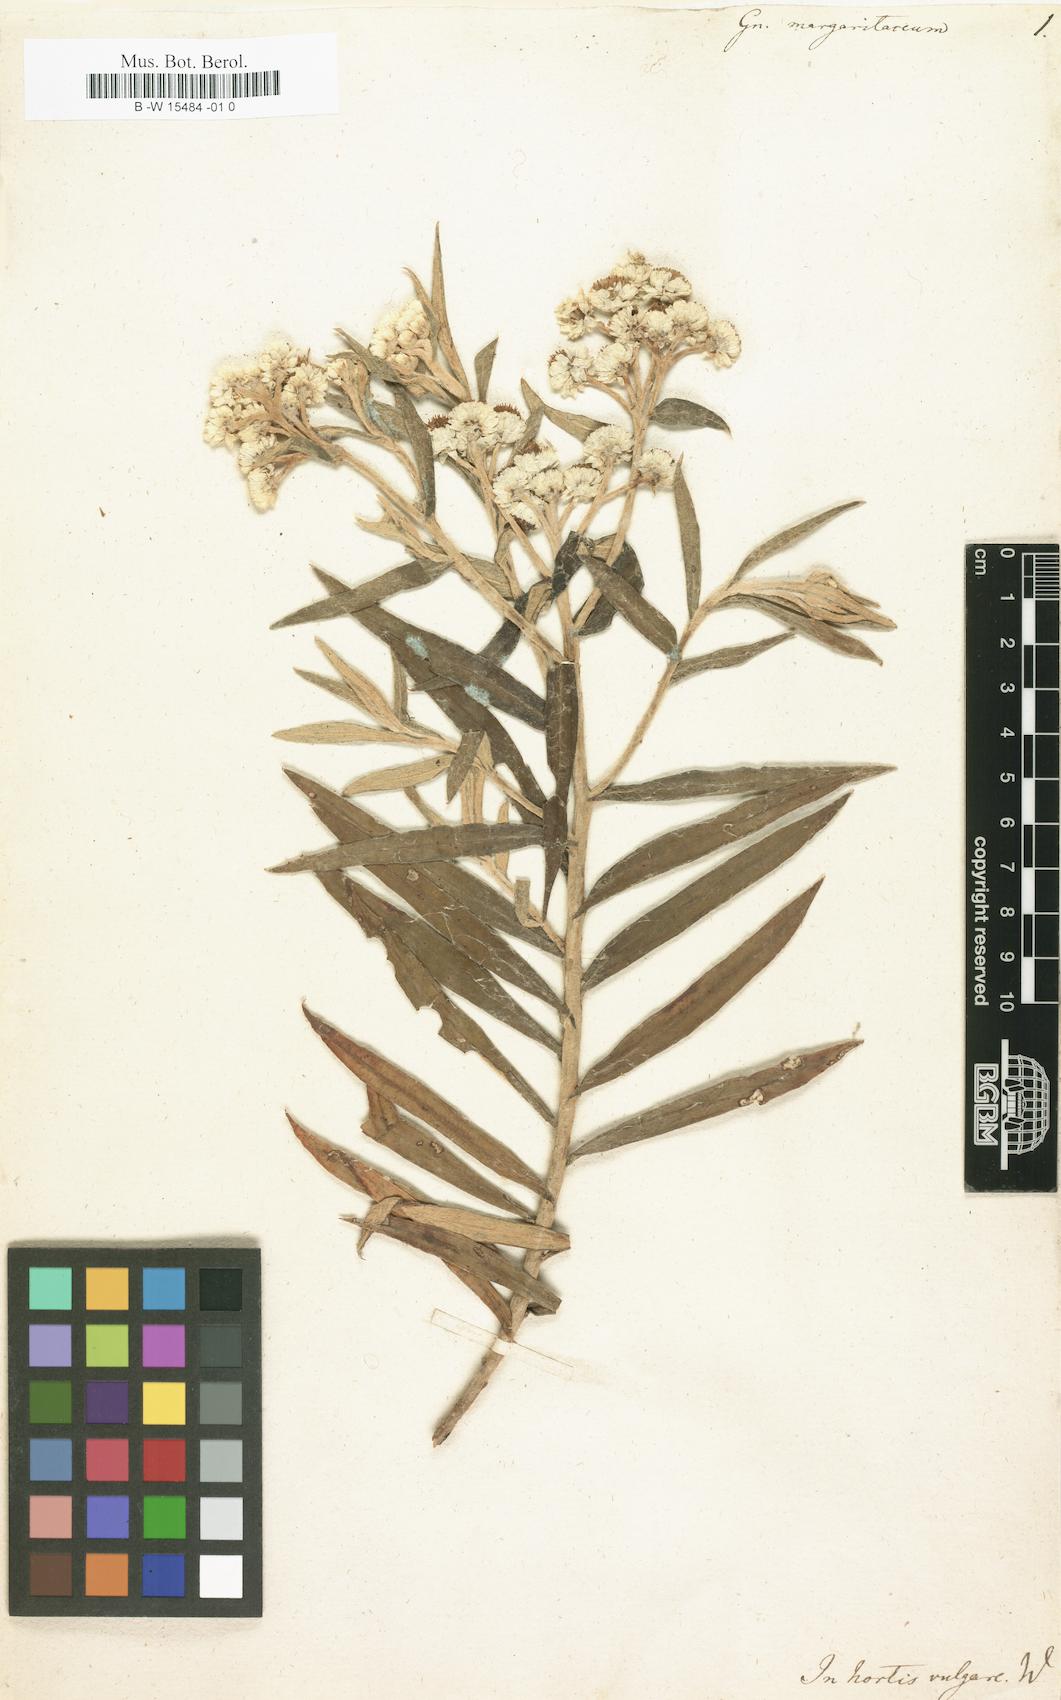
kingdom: Plantae
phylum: Tracheophyta
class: Magnoliopsida
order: Asterales
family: Asteraceae
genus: Anaphalis
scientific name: Anaphalis margaritacea
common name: Pearly everlasting
